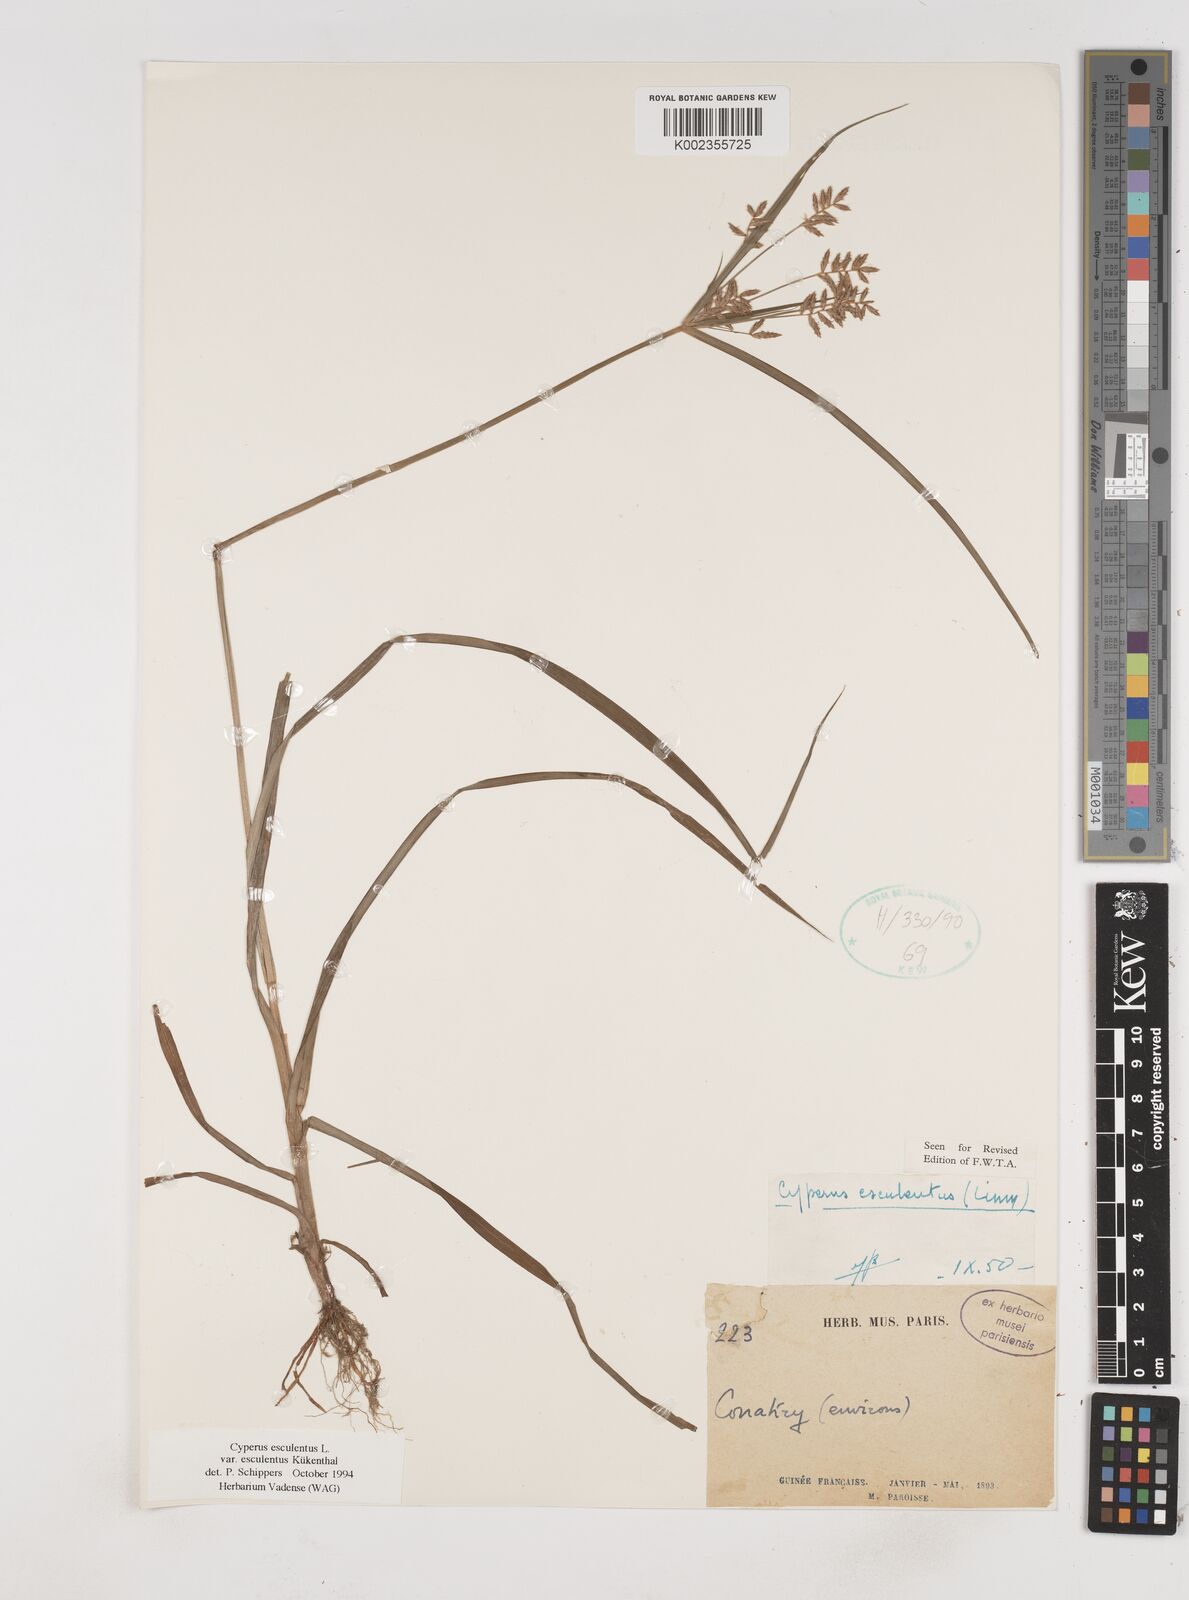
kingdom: Plantae
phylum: Tracheophyta
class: Liliopsida
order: Poales
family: Cyperaceae
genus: Cyperus
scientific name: Cyperus esculentus
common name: Yellow nutsedge
